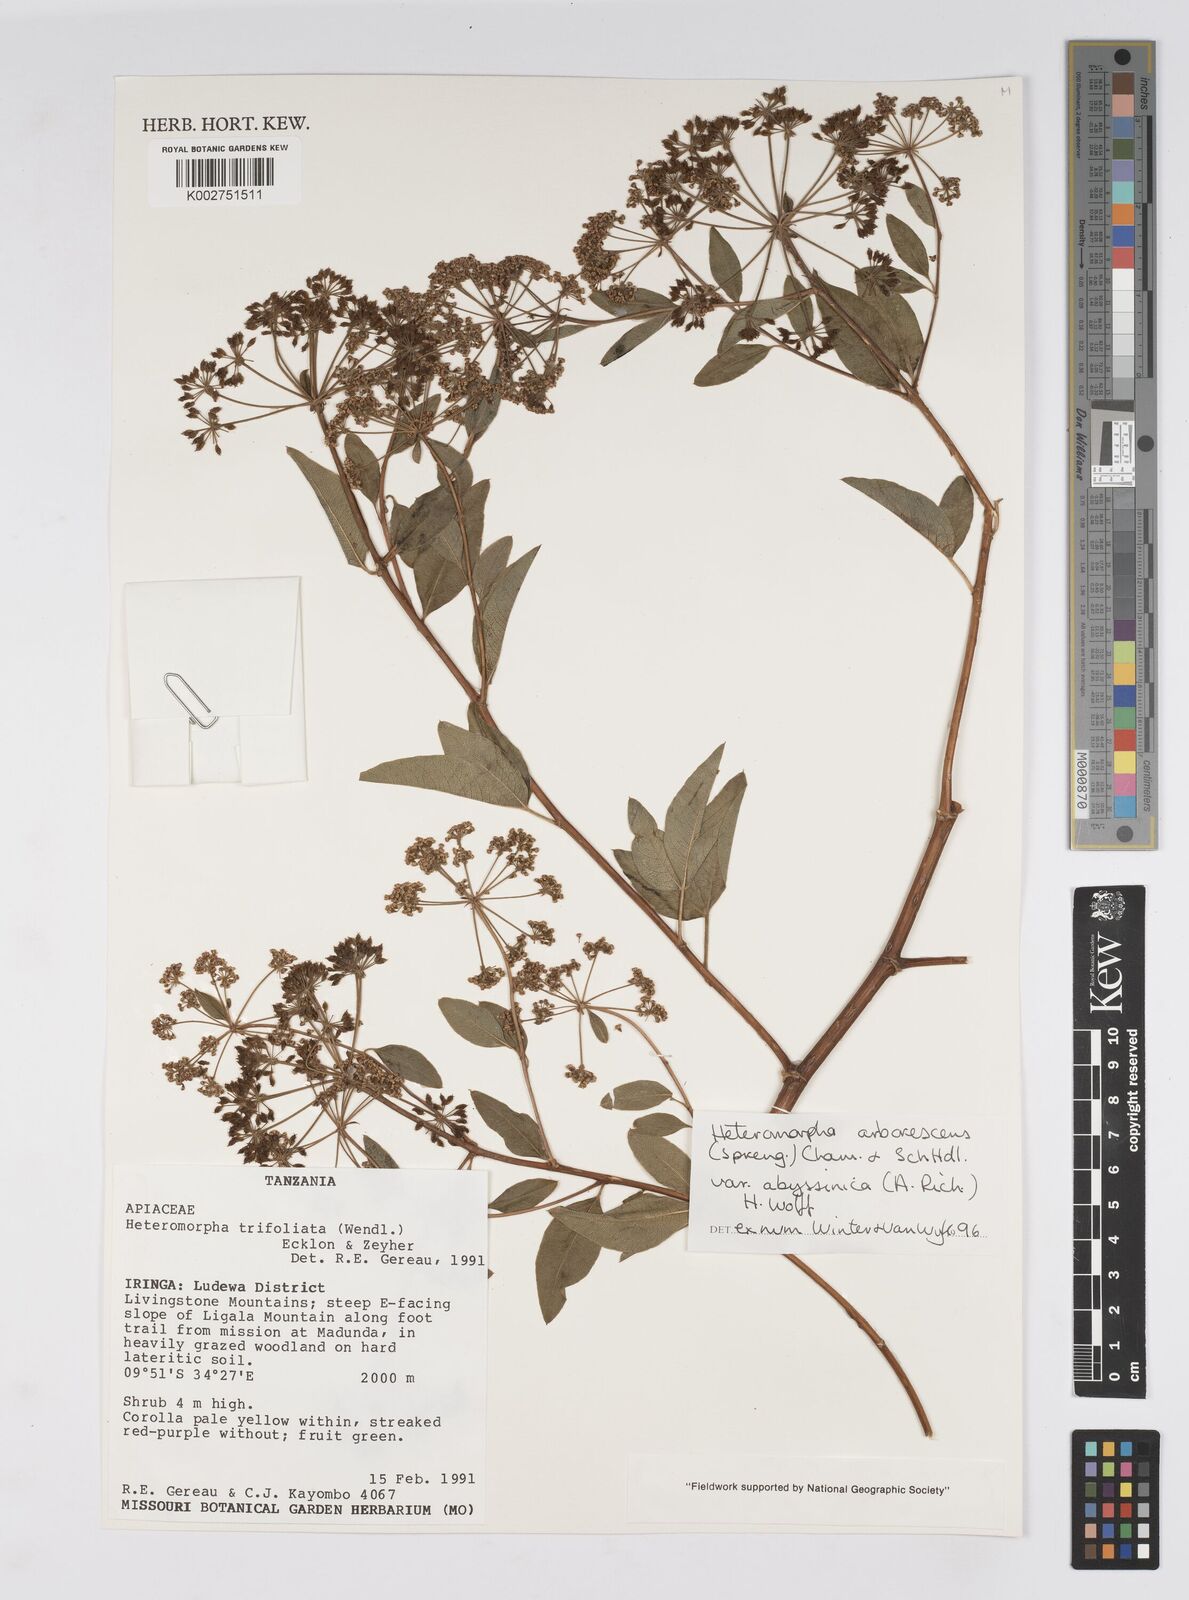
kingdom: Plantae
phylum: Tracheophyta
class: Magnoliopsida
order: Apiales
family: Apiaceae
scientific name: Apiaceae
